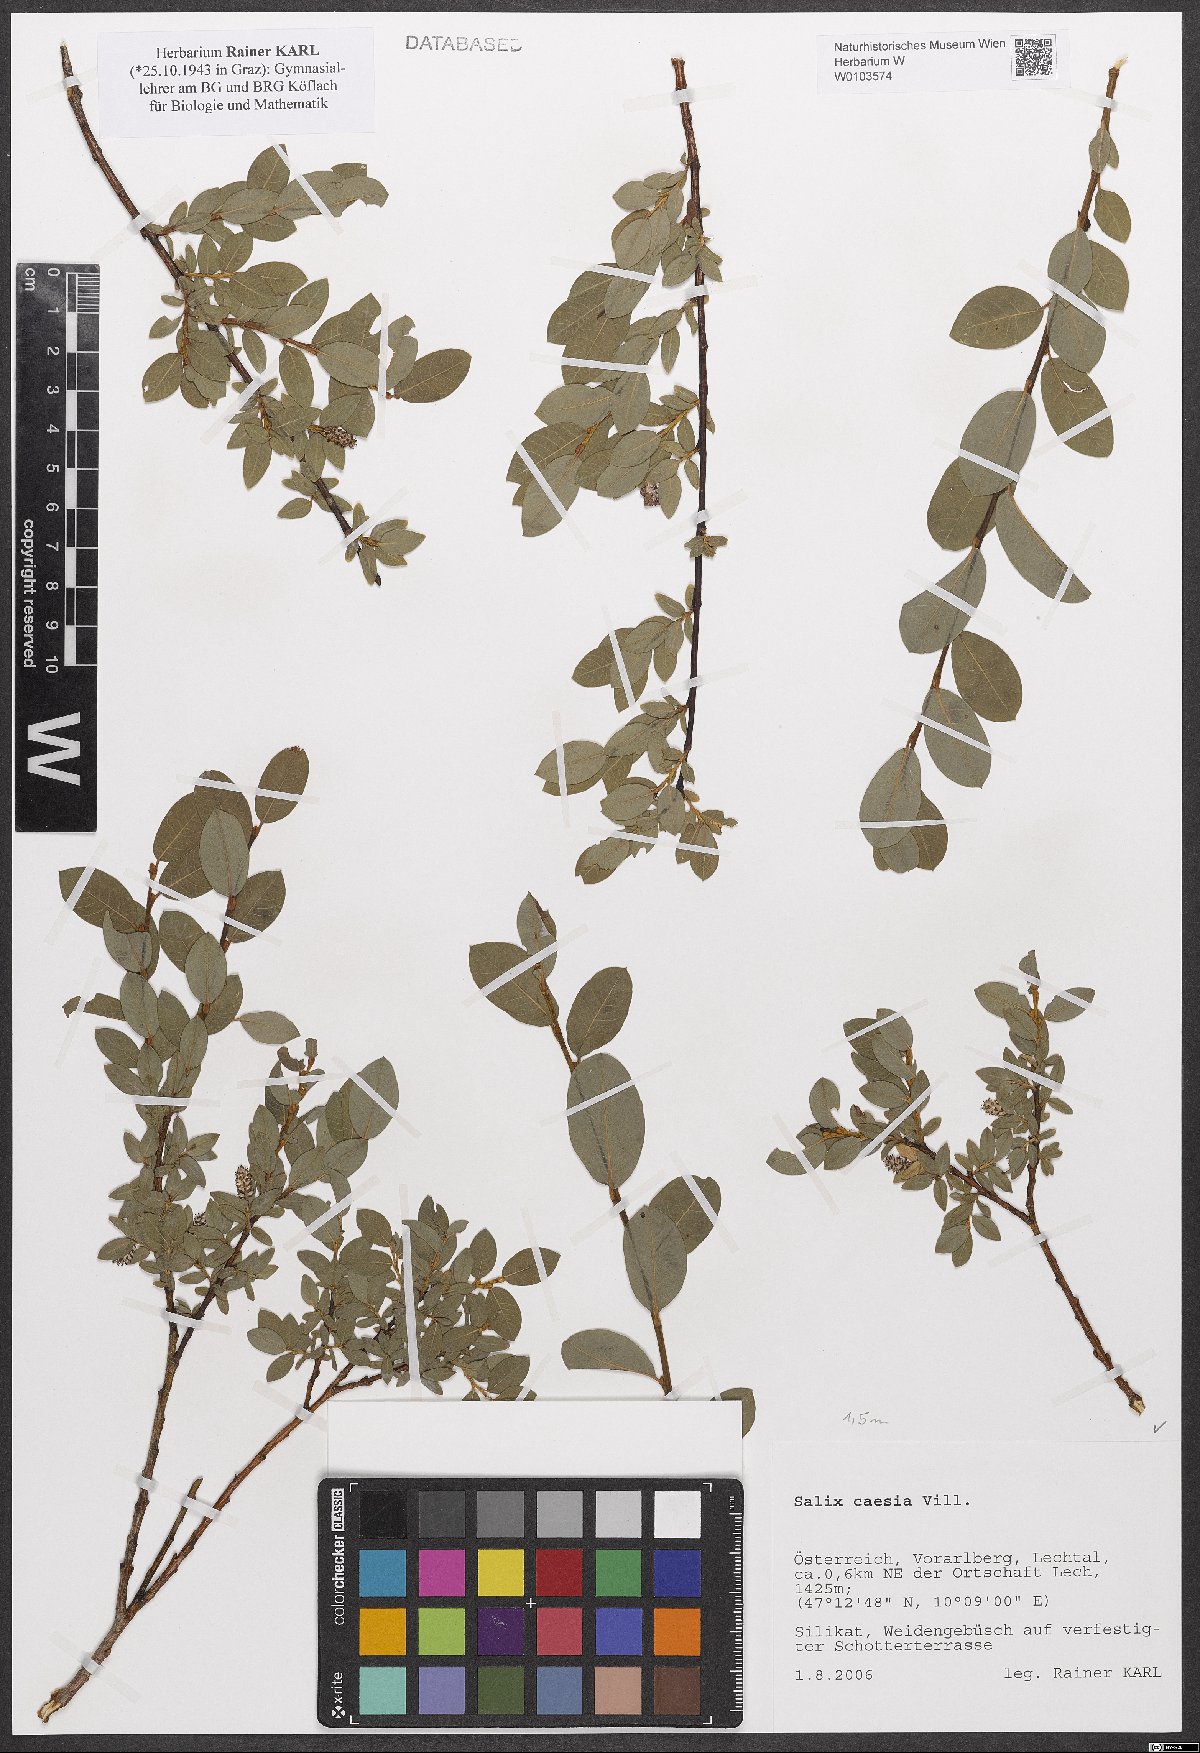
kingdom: Plantae
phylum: Tracheophyta
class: Magnoliopsida
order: Malpighiales
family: Salicaceae
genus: Salix
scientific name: Salix caesia
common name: Blue willow
